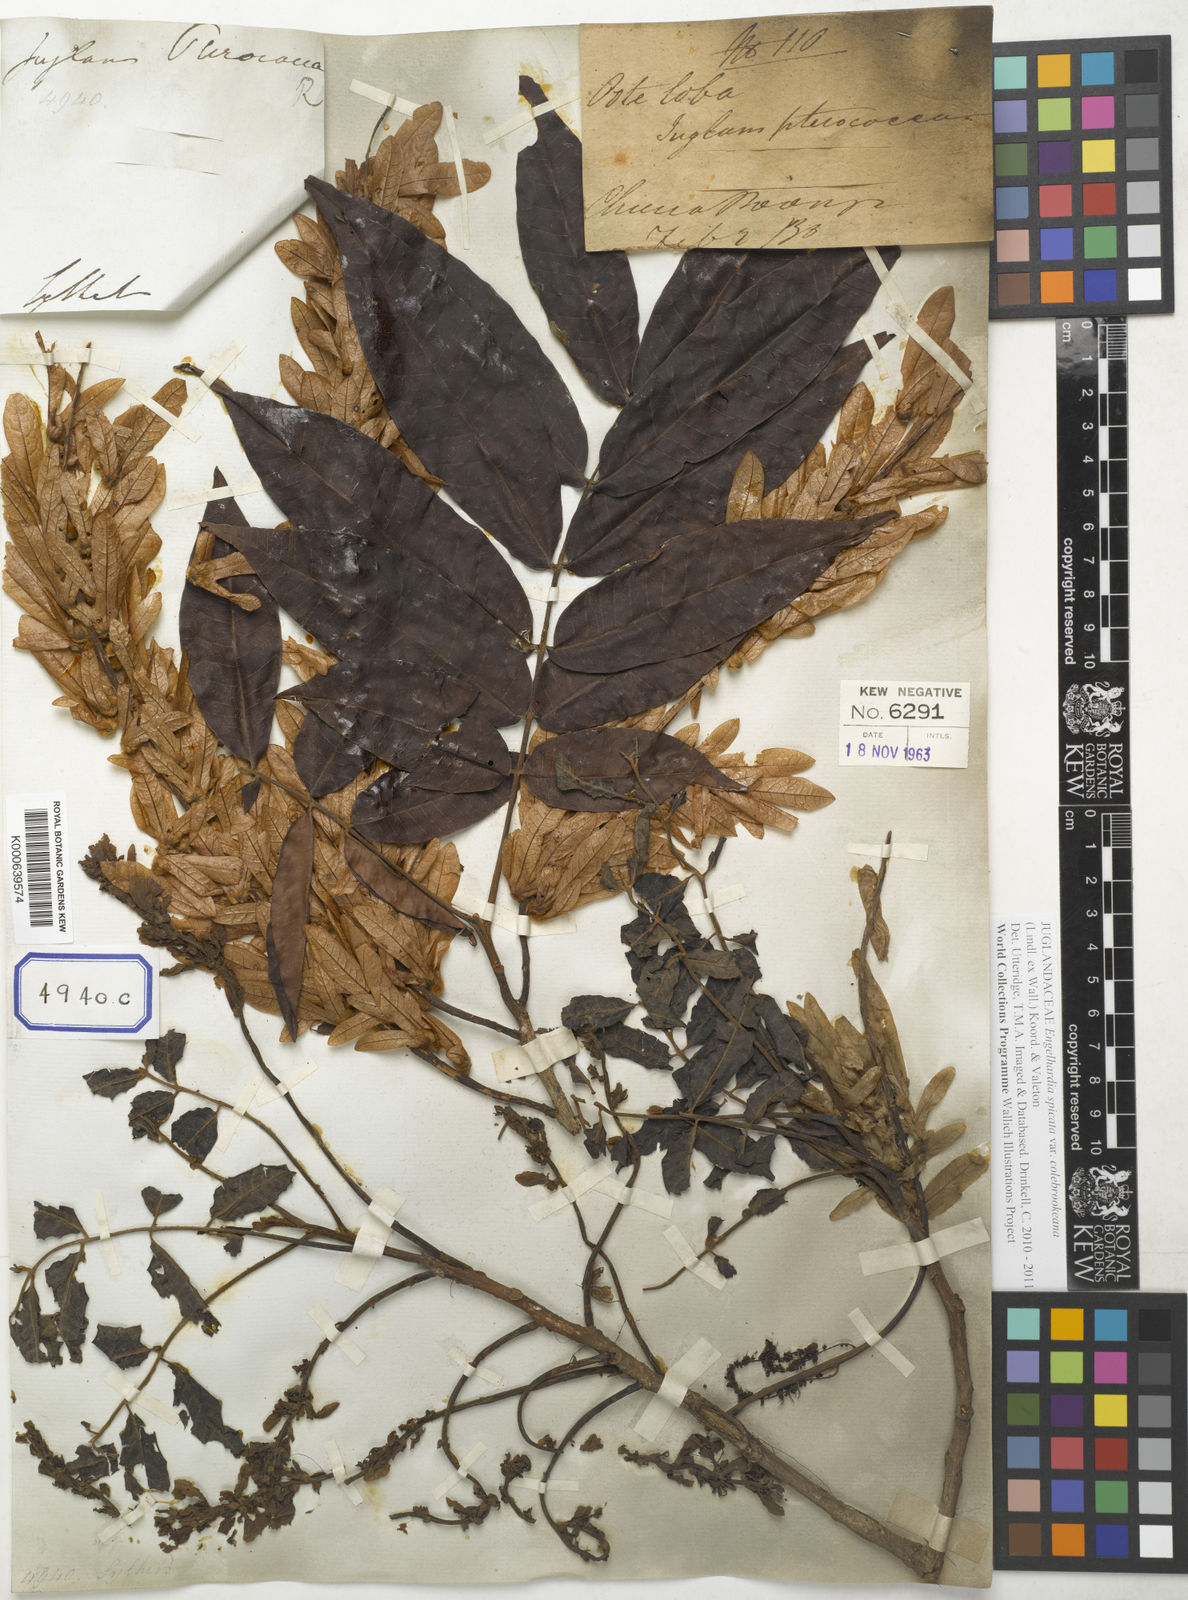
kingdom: Plantae
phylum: Tracheophyta
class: Magnoliopsida
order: Fagales
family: Juglandaceae
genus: Engelhardia
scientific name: Engelhardia roxburghiana
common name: Golden malay beam
